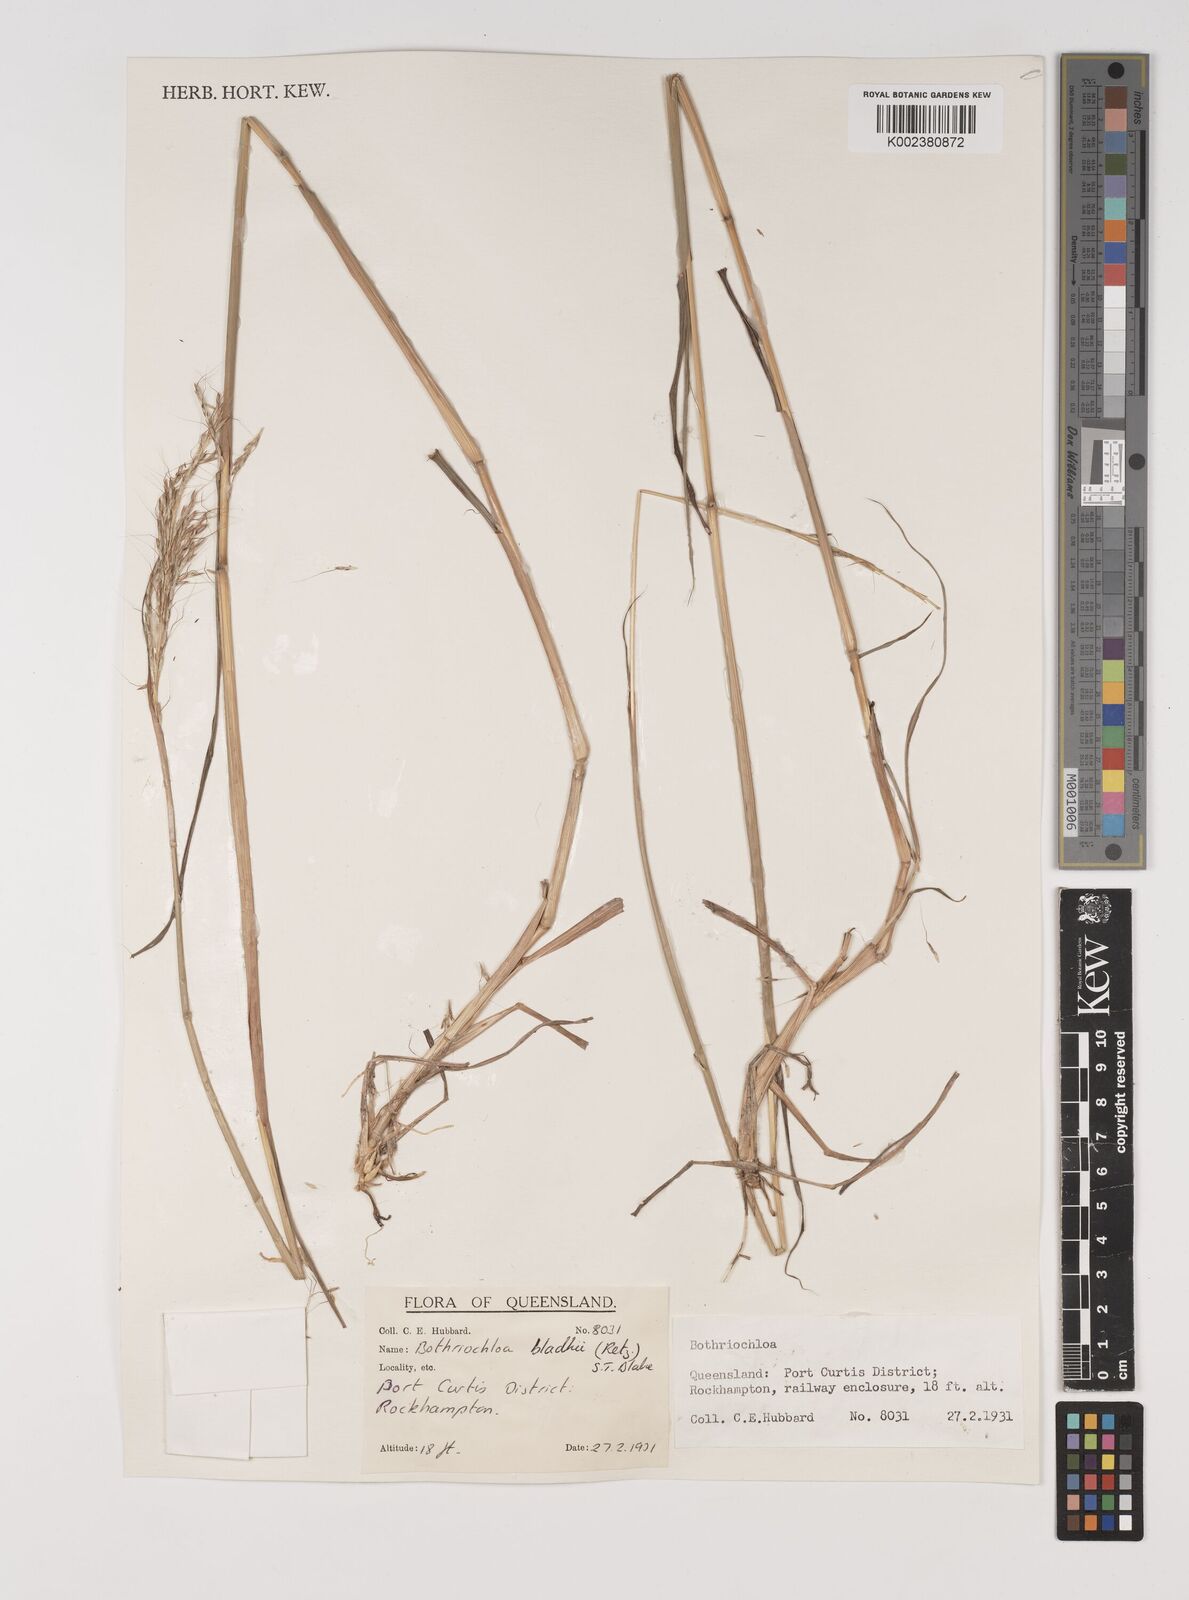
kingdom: Plantae
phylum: Tracheophyta
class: Liliopsida
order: Poales
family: Poaceae
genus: Bothriochloa
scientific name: Bothriochloa bladhii
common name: Caucasian bluestem
